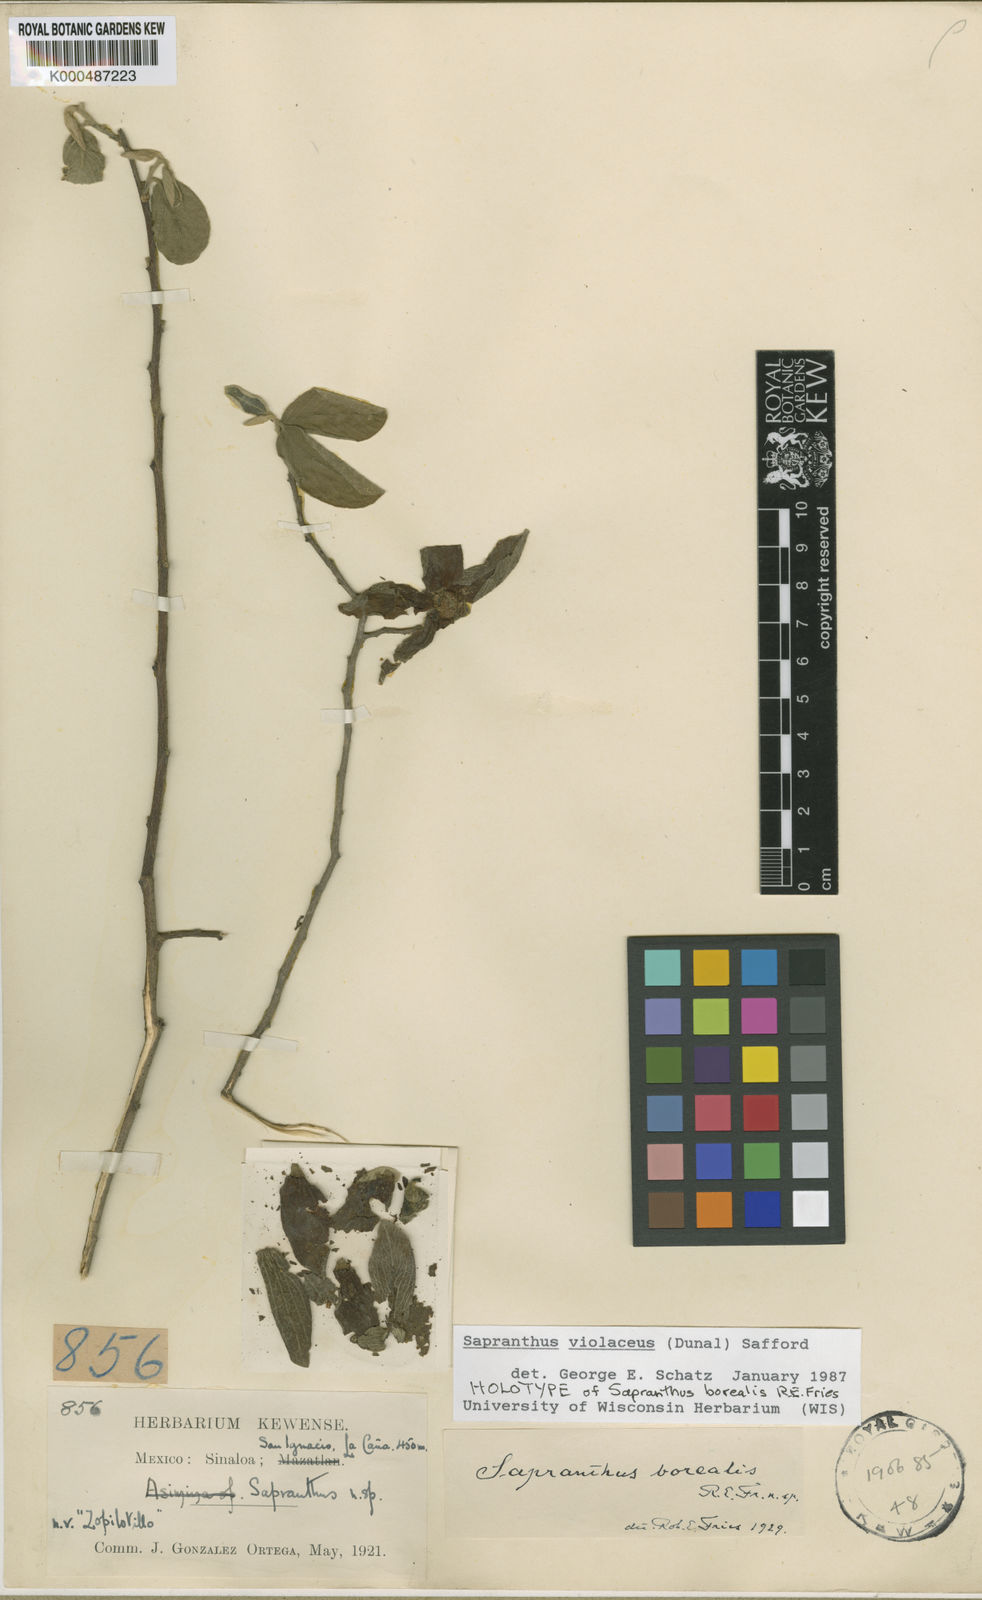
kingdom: Plantae
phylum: Tracheophyta
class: Magnoliopsida
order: Magnoliales
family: Annonaceae
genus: Sapranthus
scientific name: Sapranthus
